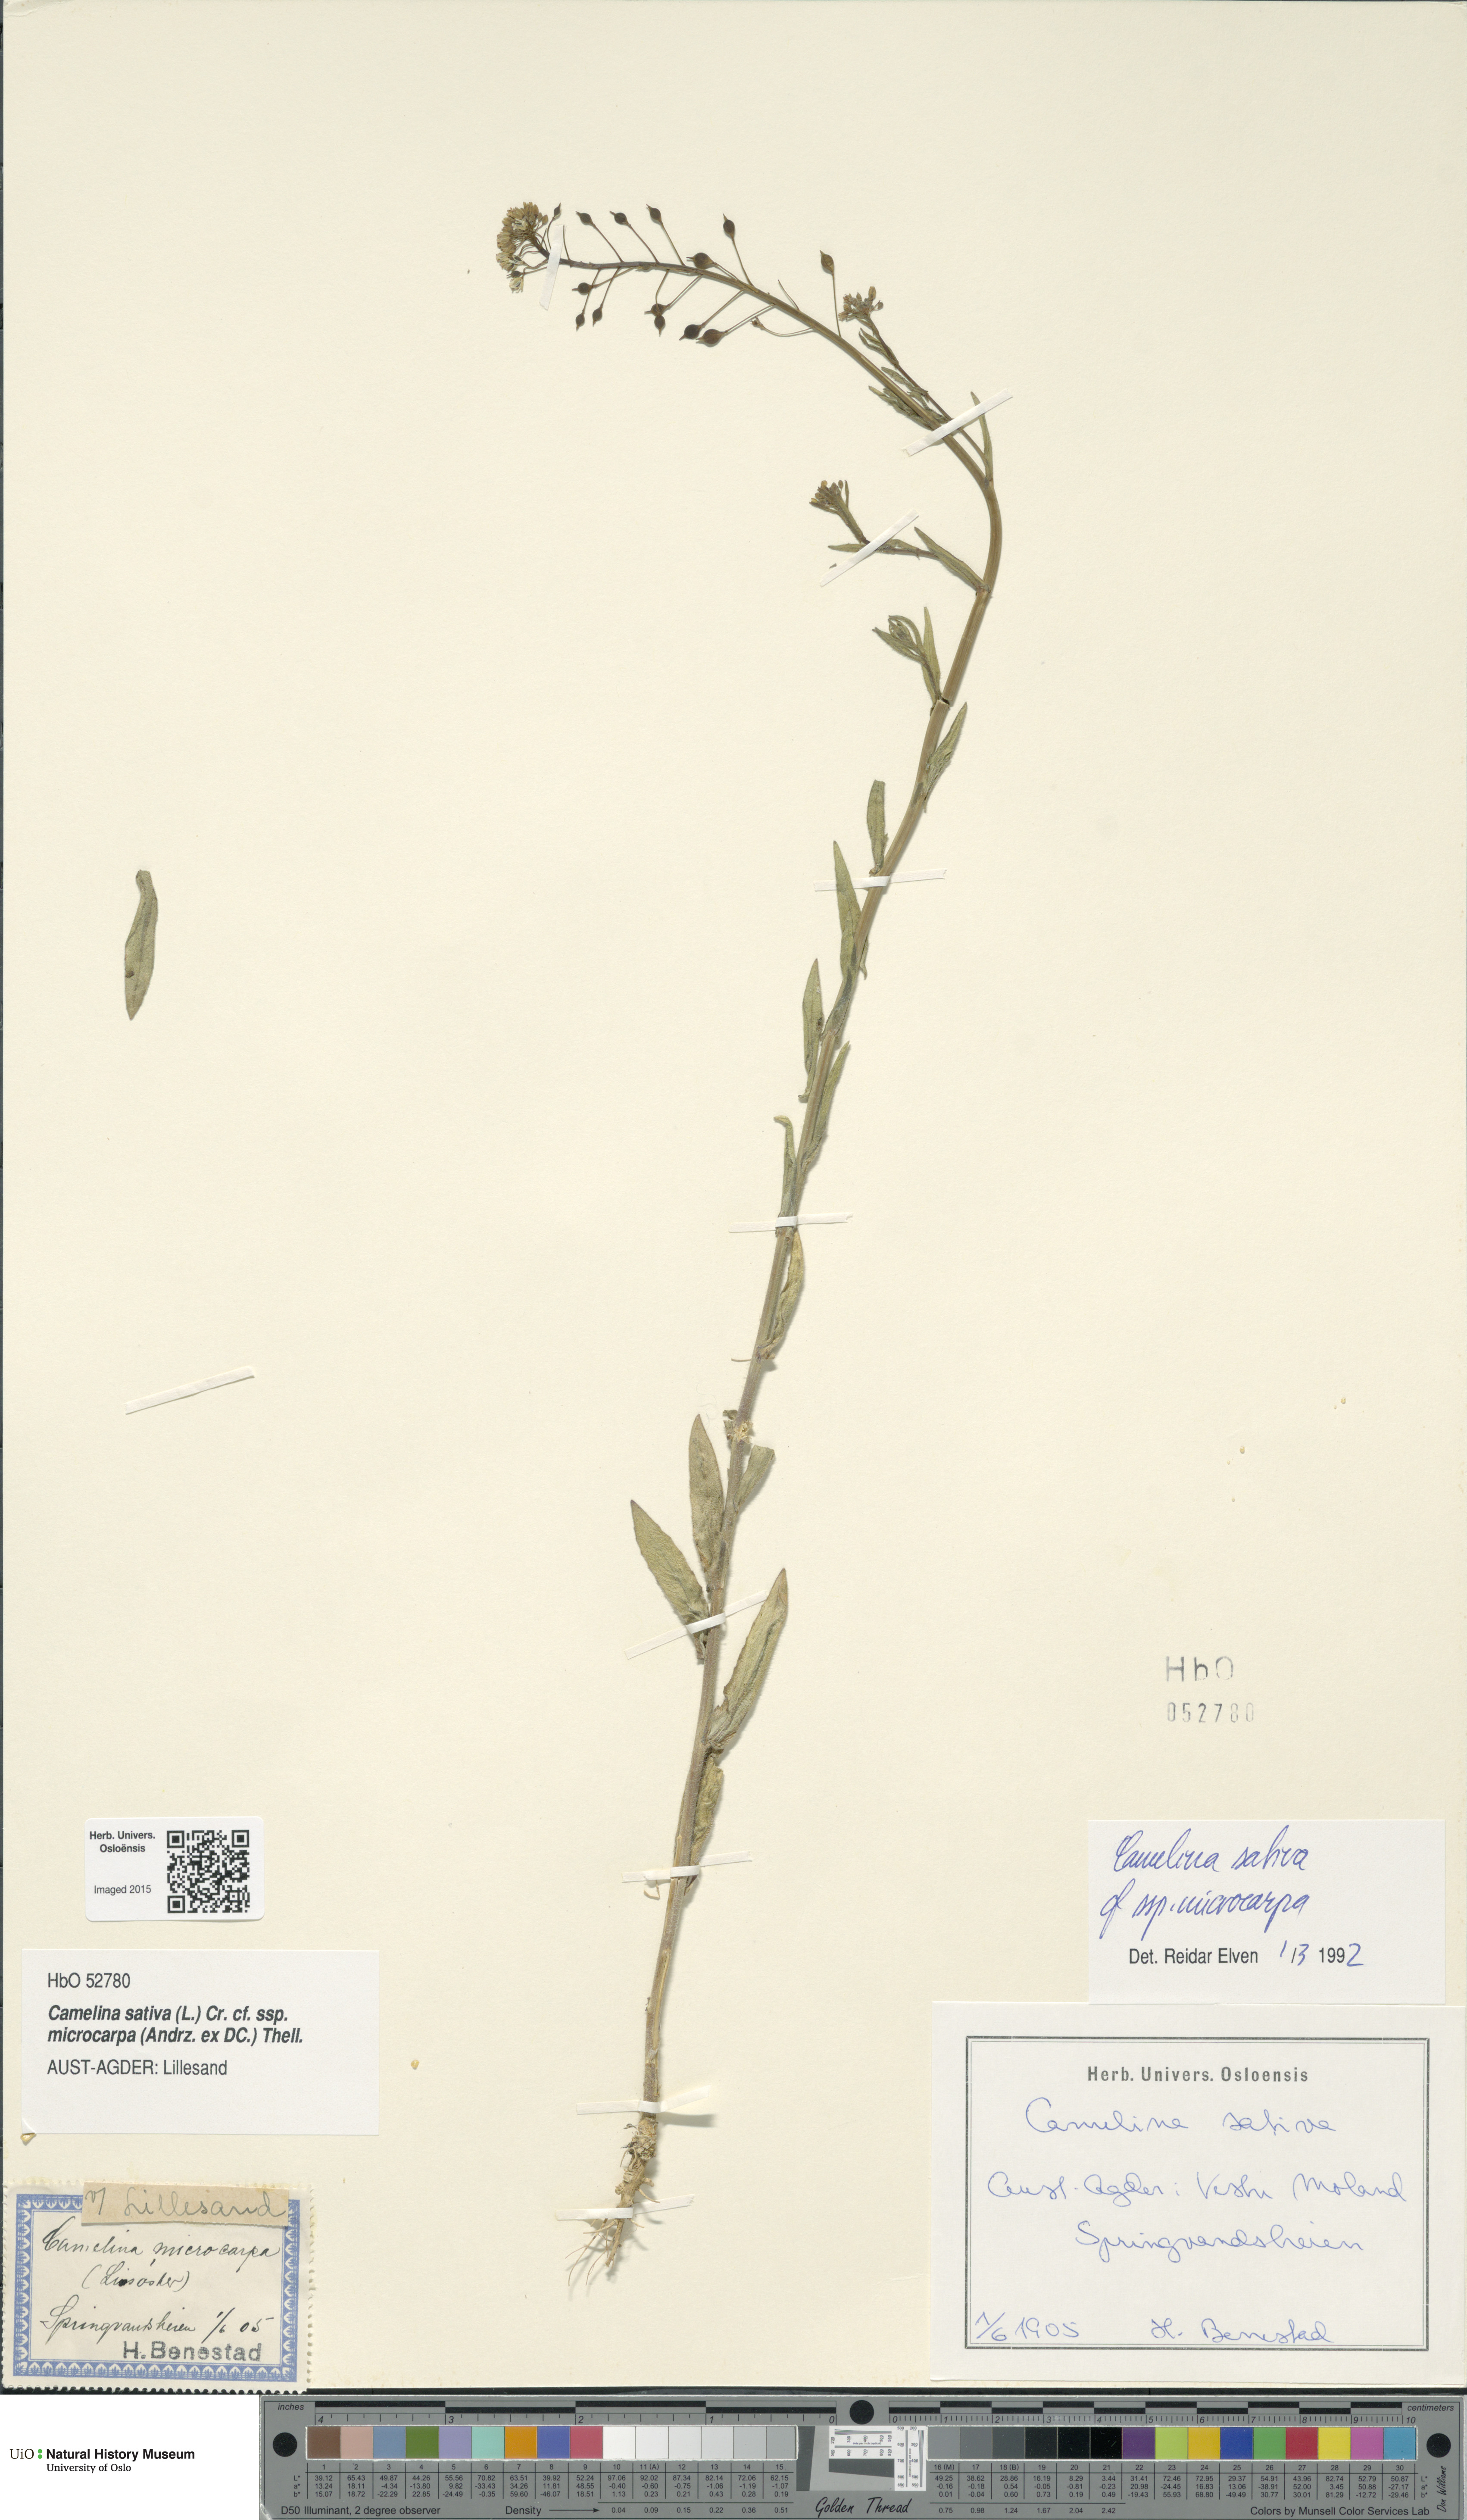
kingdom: Plantae
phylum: Tracheophyta
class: Magnoliopsida
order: Brassicales
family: Brassicaceae
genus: Camelina
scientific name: Camelina sativa
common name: Gold-of-pleasure
